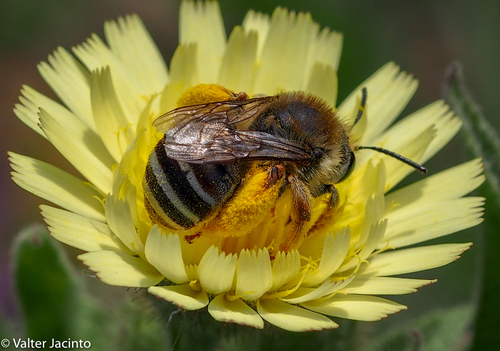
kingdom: Animalia
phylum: Arthropoda
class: Insecta
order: Hymenoptera
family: Apidae
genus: Eucera
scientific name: Eucera
